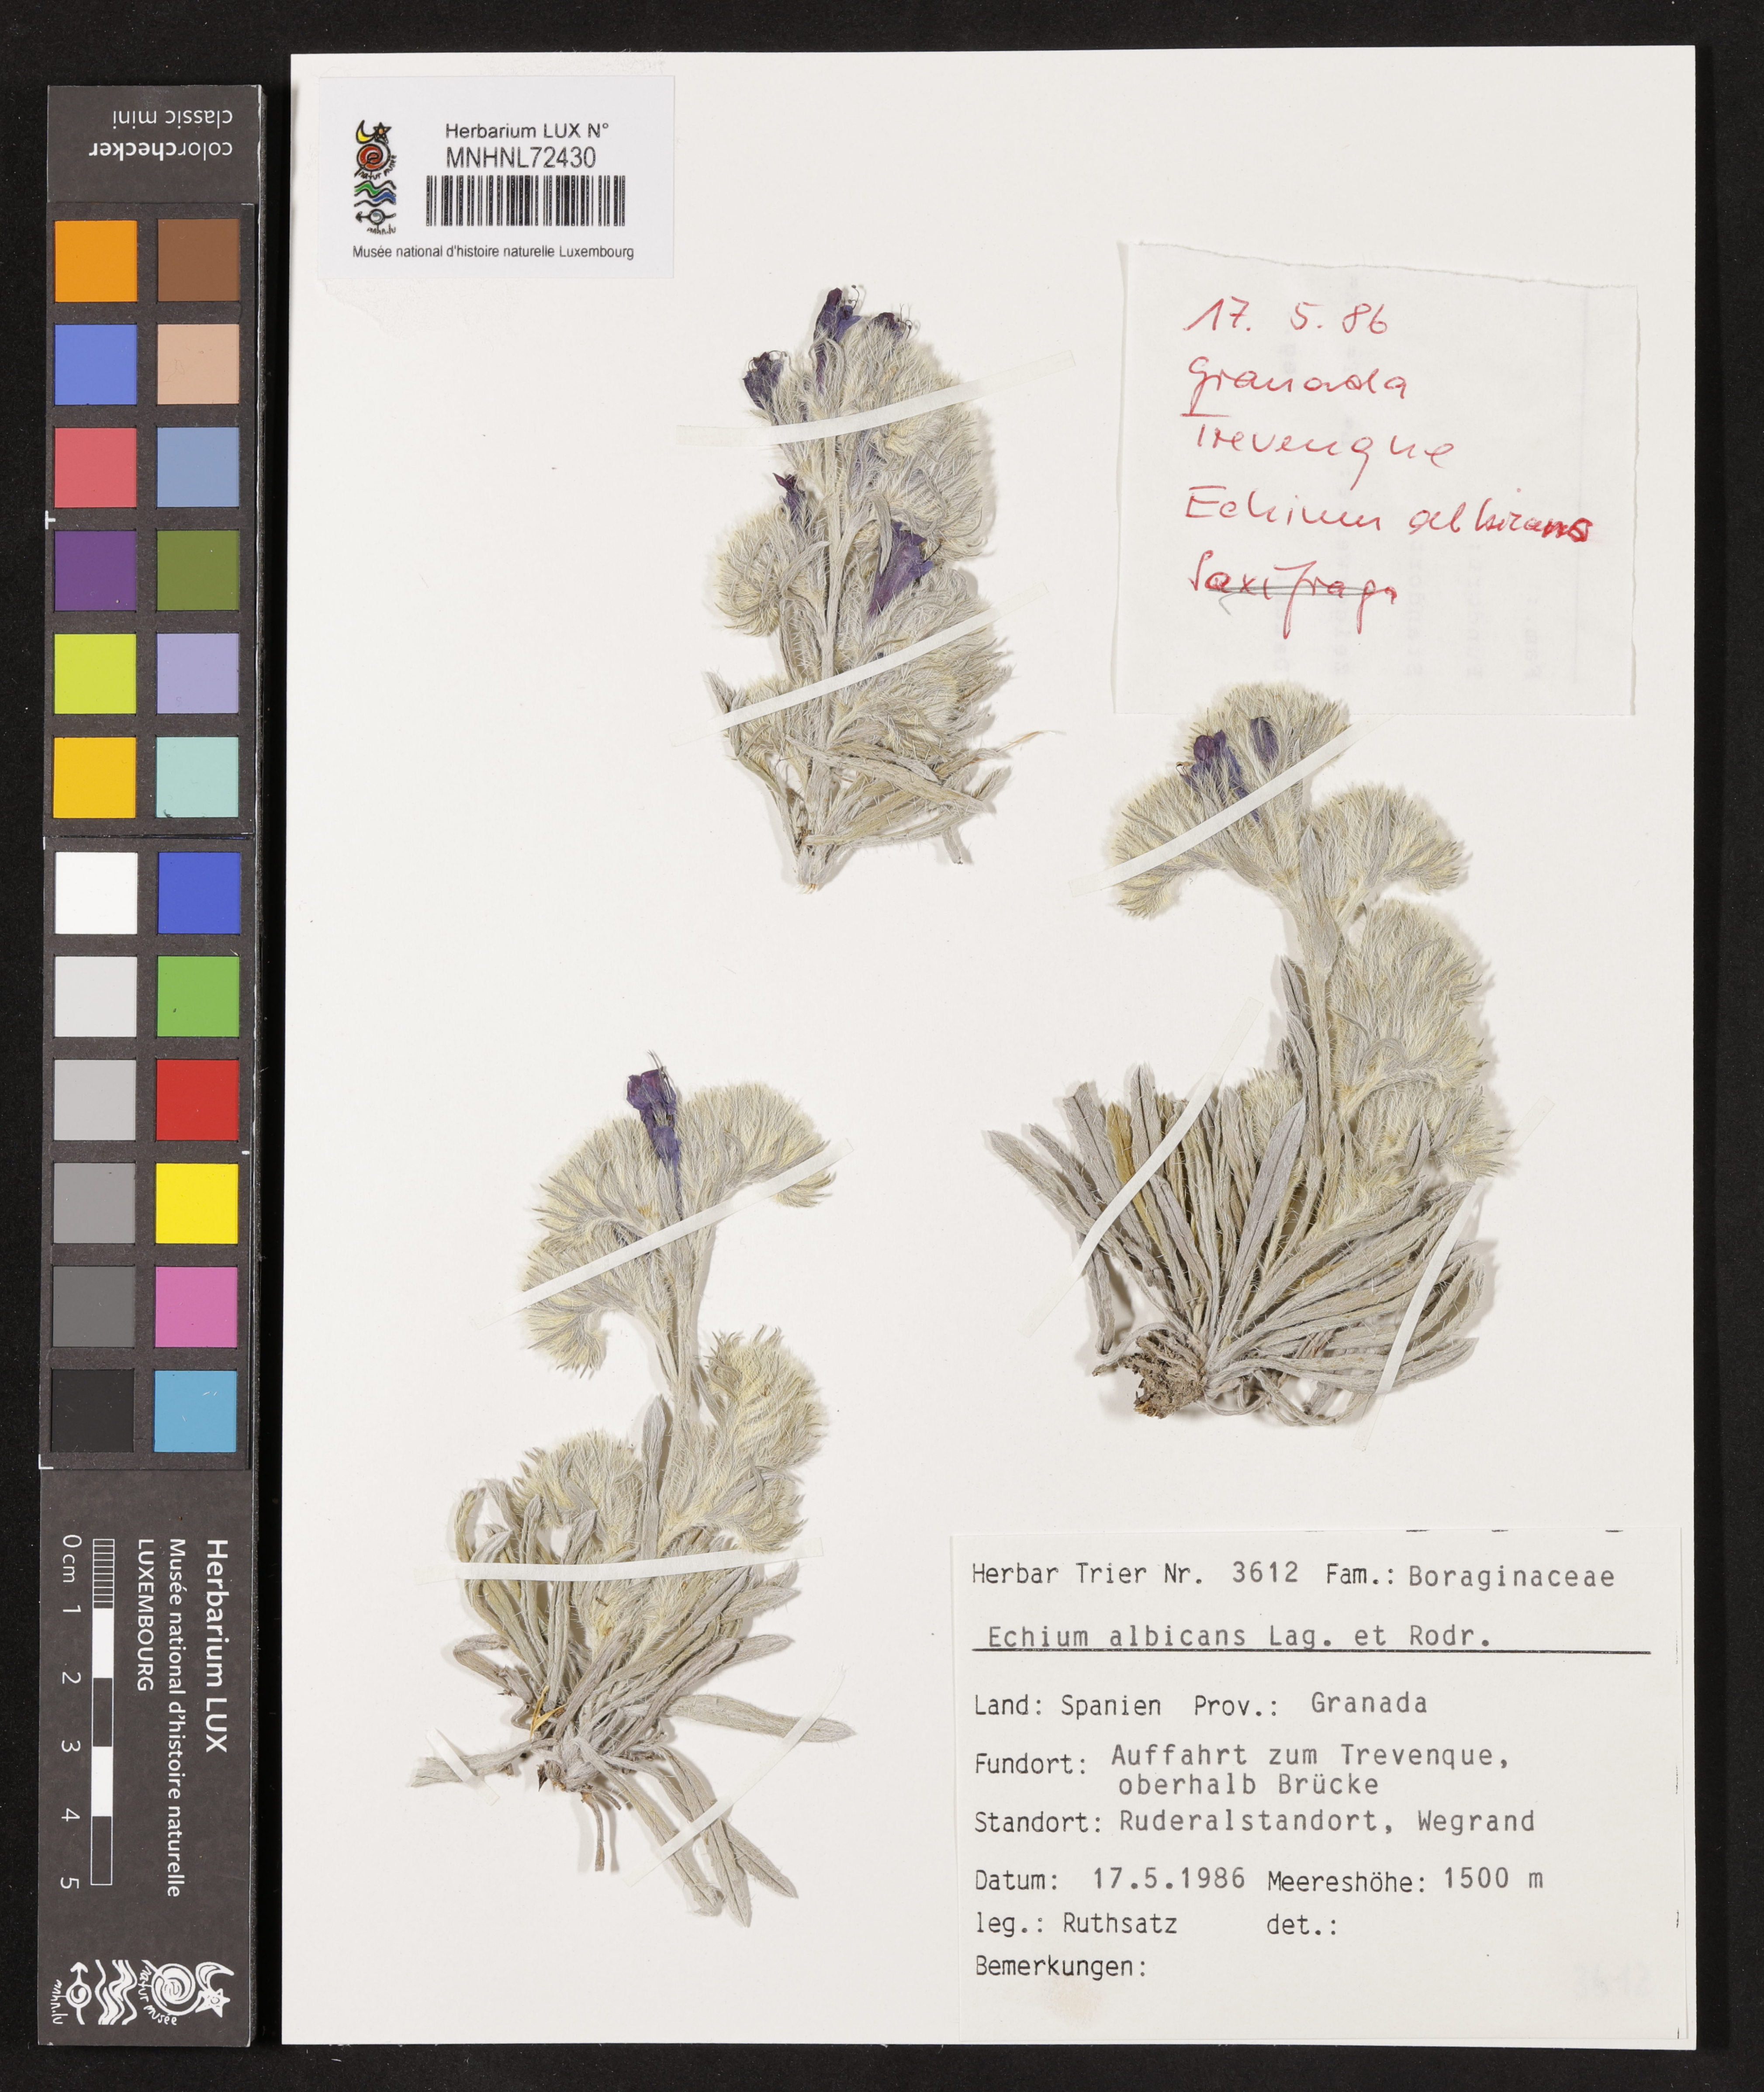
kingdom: Plantae
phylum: Tracheophyta
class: Magnoliopsida
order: Boraginales
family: Boraginaceae
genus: Echium
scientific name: Echium albicans
